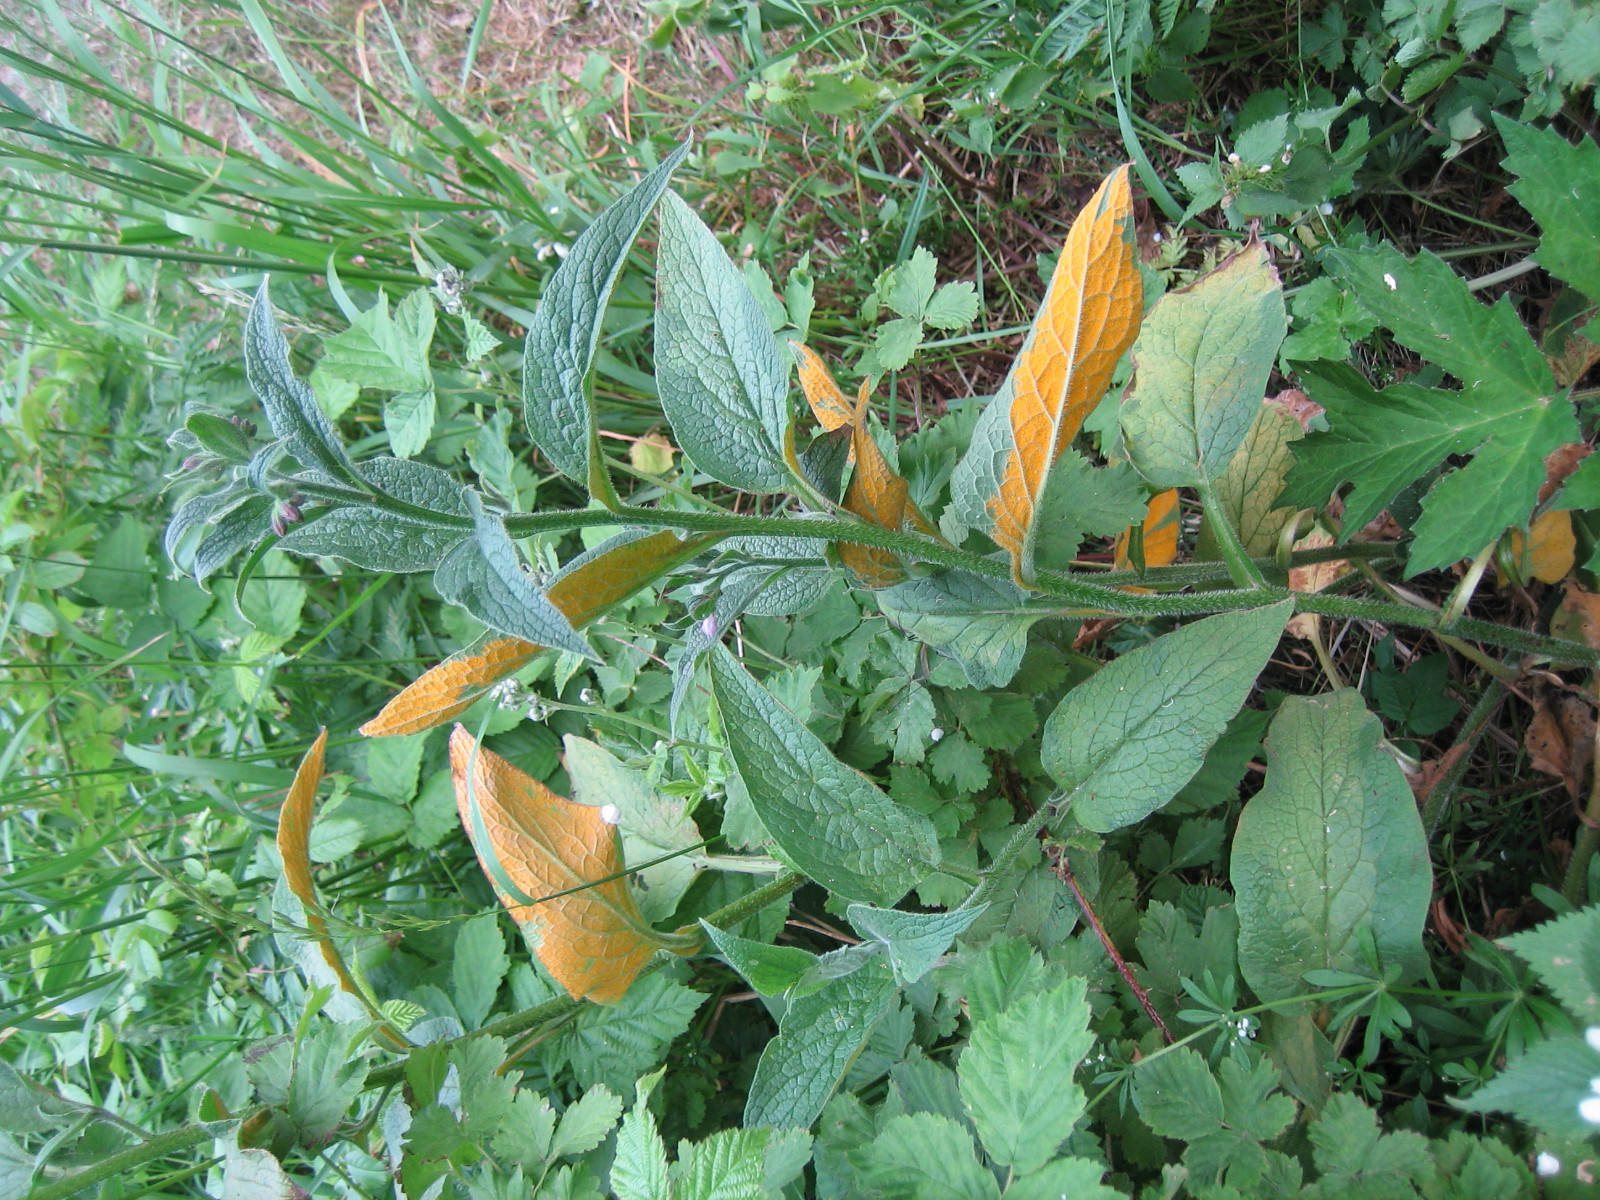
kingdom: Fungi
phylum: Basidiomycota
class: Pucciniomycetes
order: Pucciniales
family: Pucciniastraceae
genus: Pucciniastrum
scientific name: Pucciniastrum symphyti
